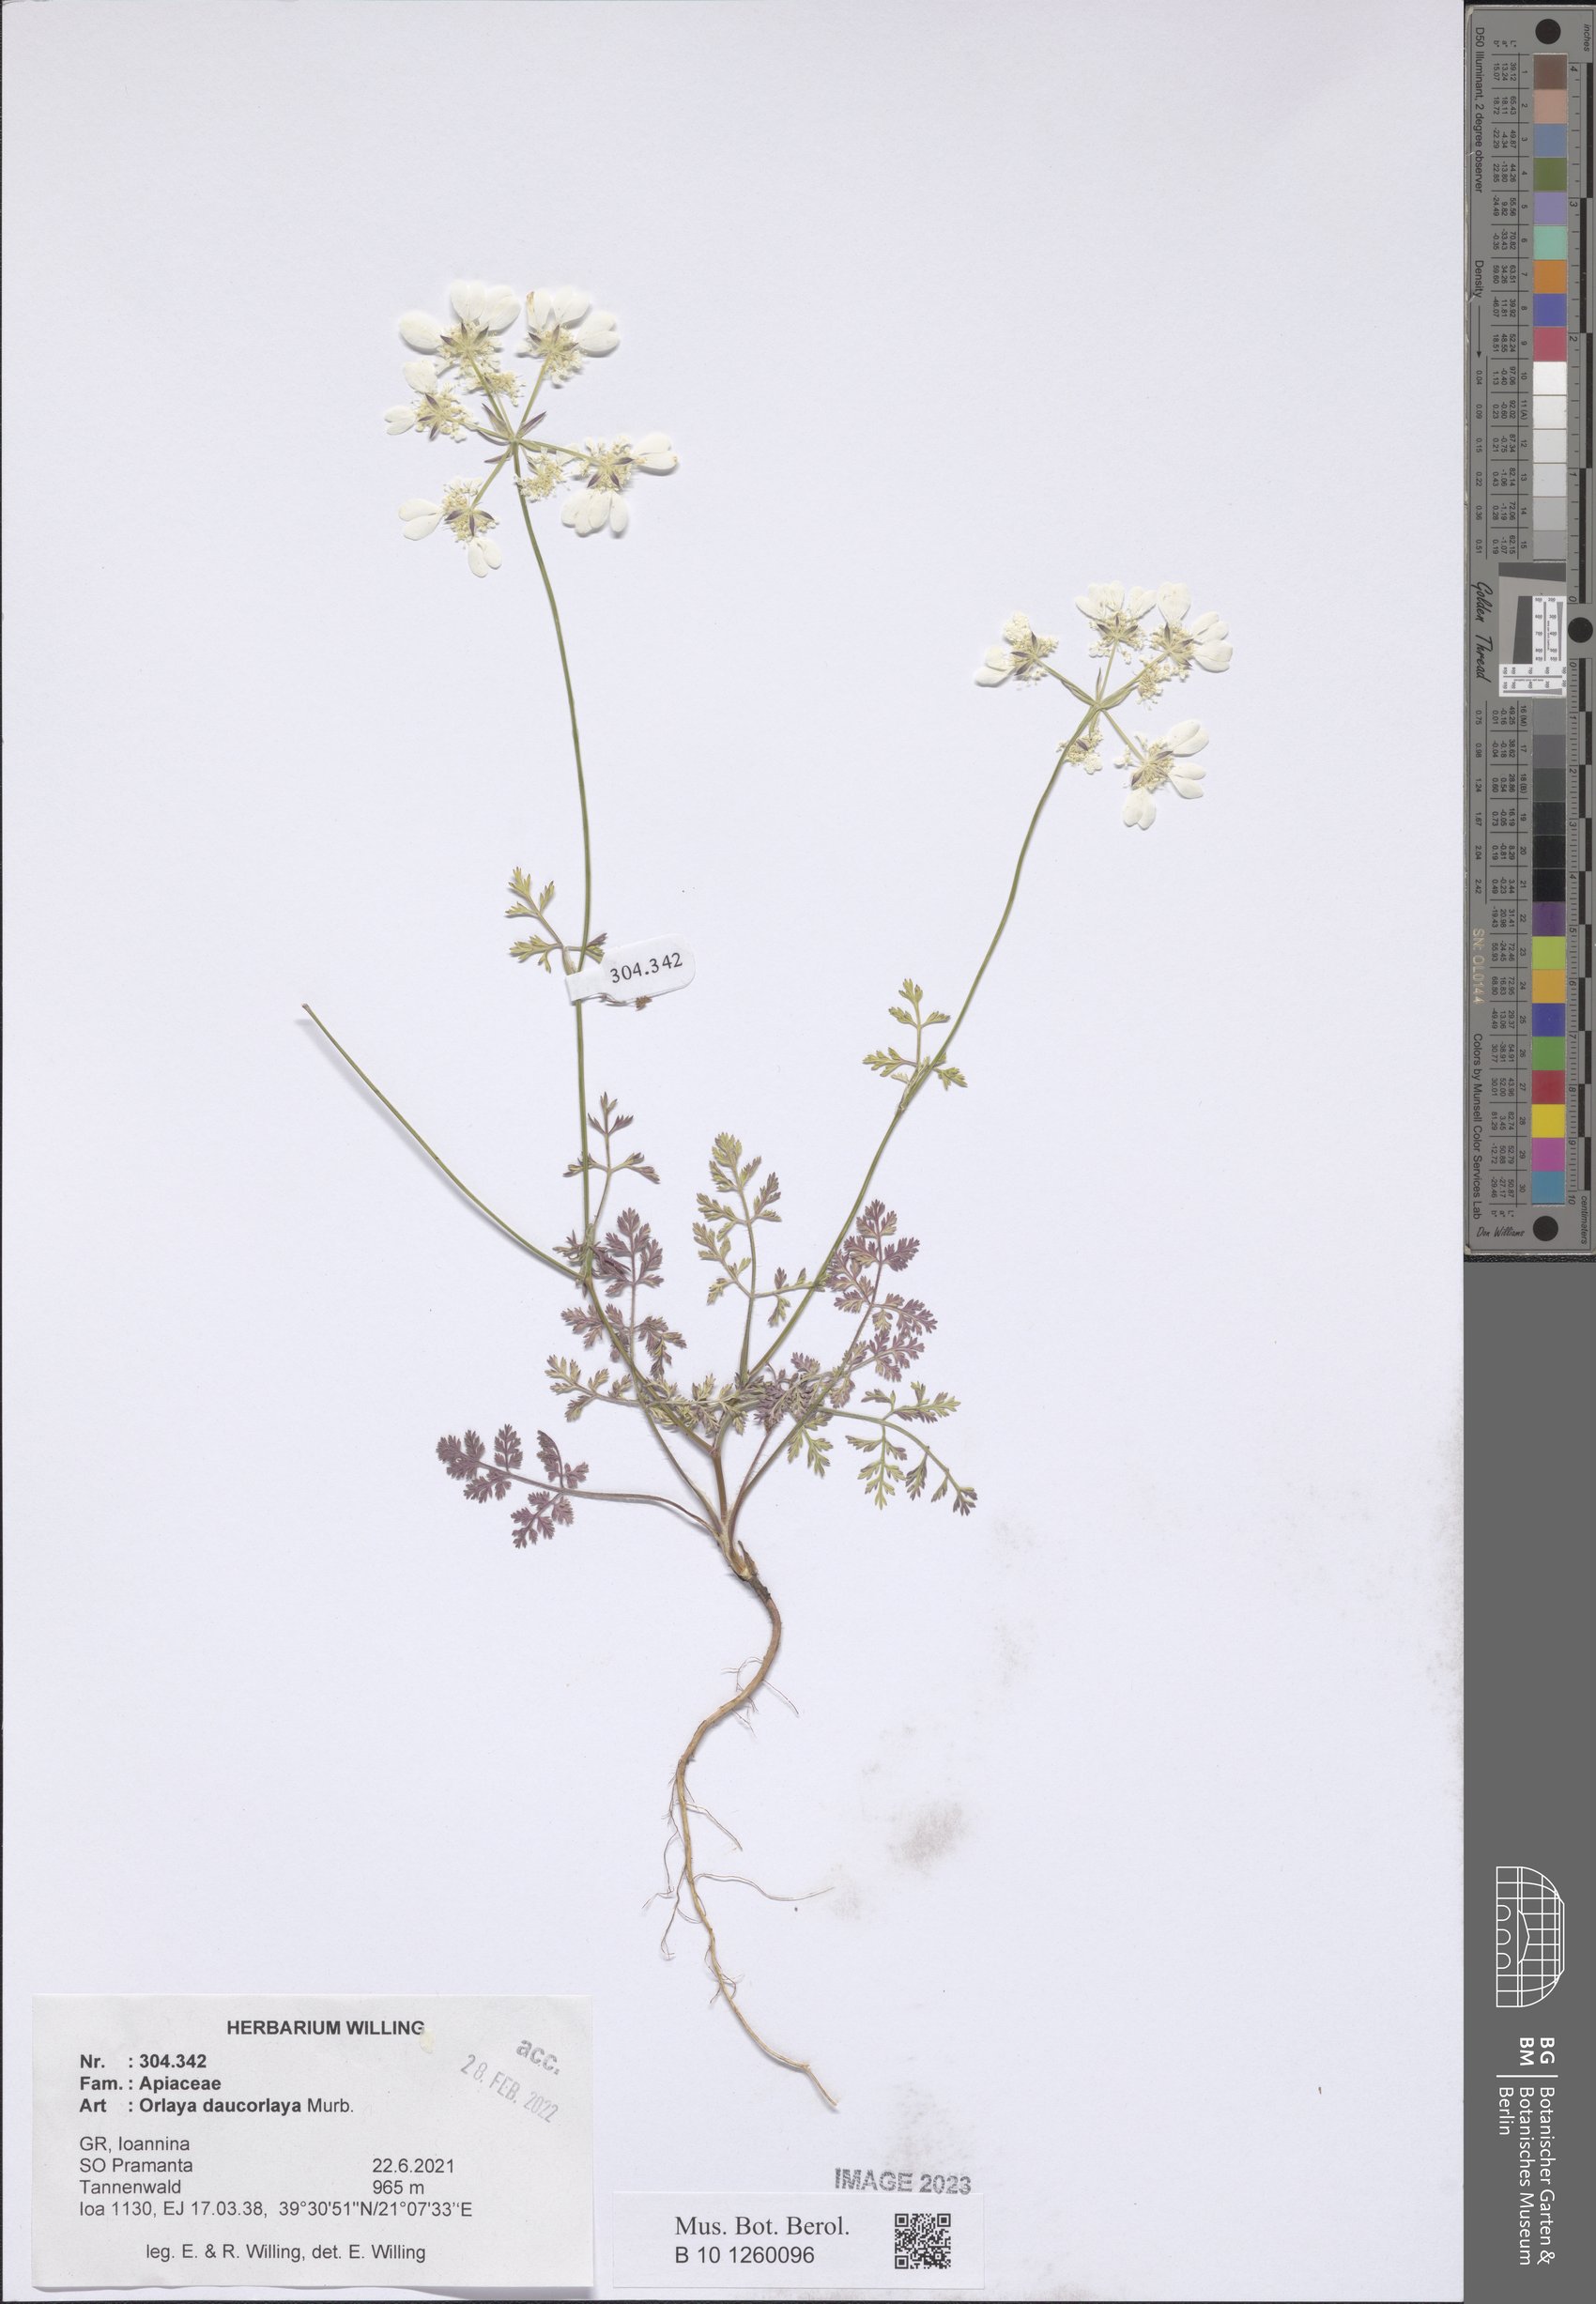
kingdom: Plantae
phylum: Tracheophyta
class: Magnoliopsida
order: Apiales
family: Apiaceae
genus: Orlaya
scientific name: Orlaya daucorlaya
